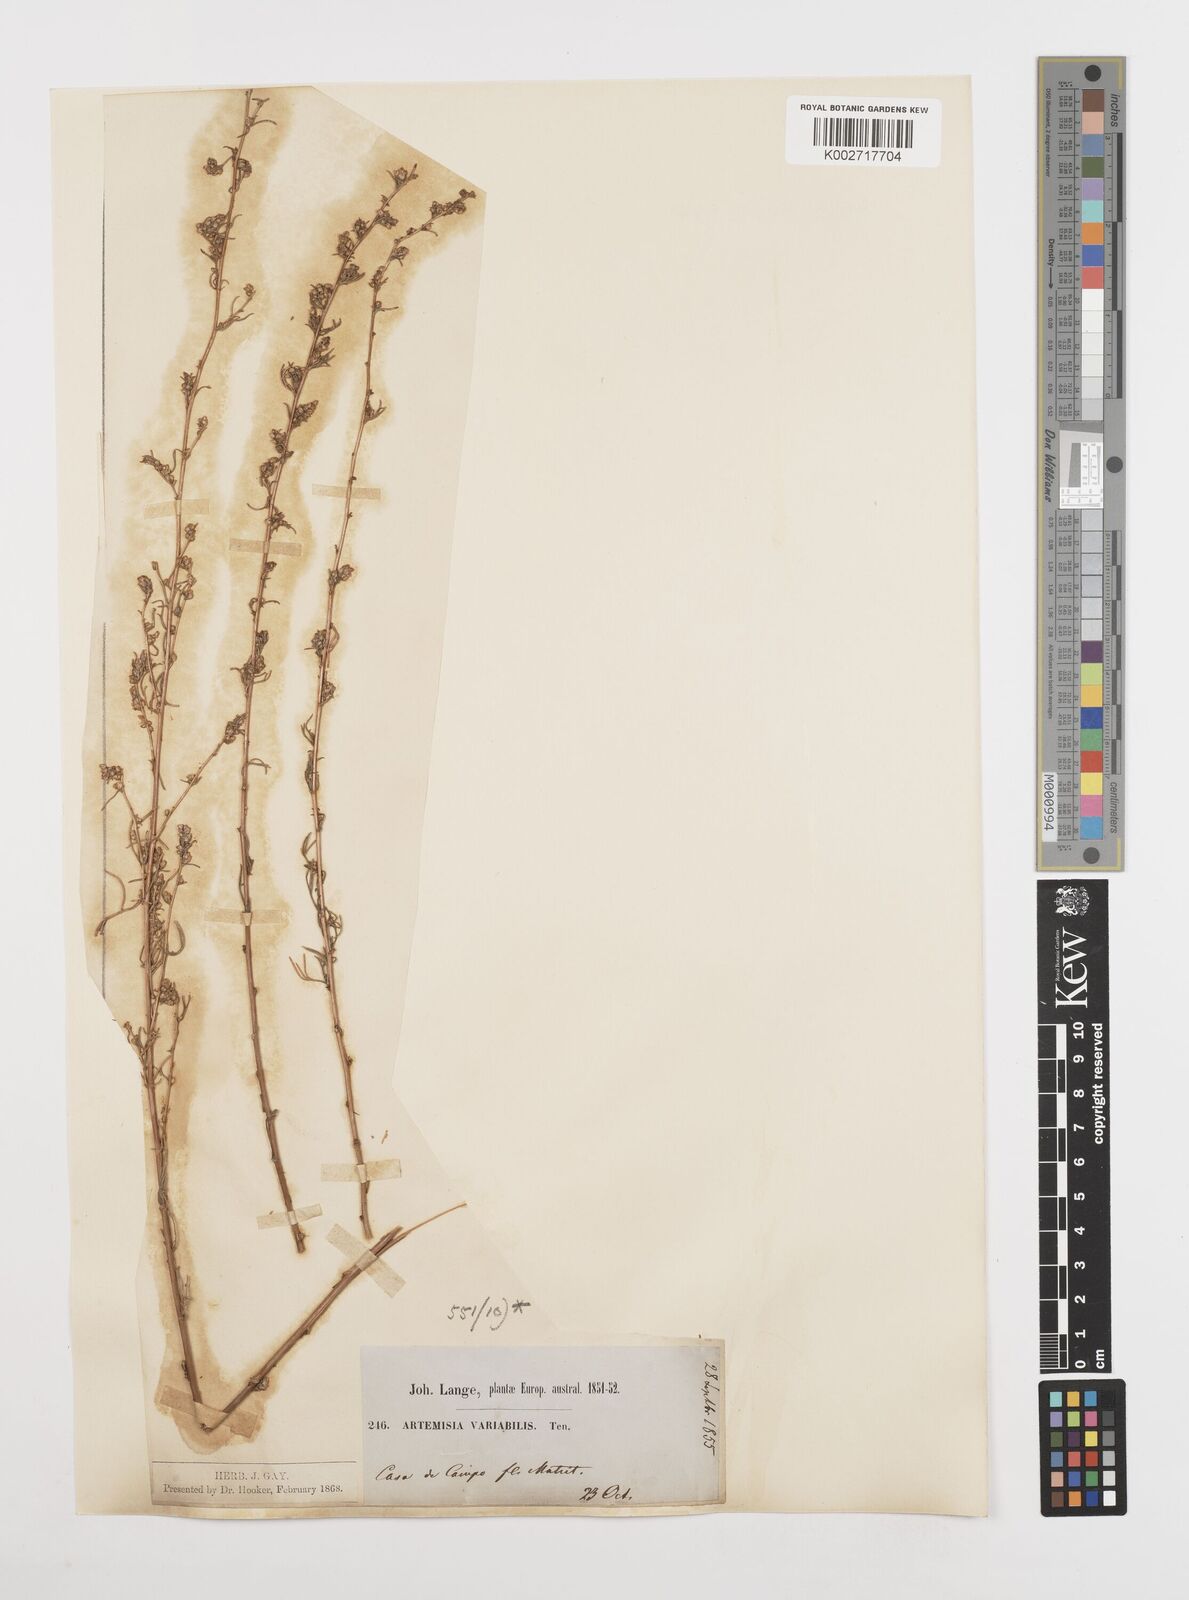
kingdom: Plantae
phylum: Tracheophyta
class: Magnoliopsida
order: Asterales
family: Asteraceae
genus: Artemisia
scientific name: Artemisia campestris
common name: Field wormwood
